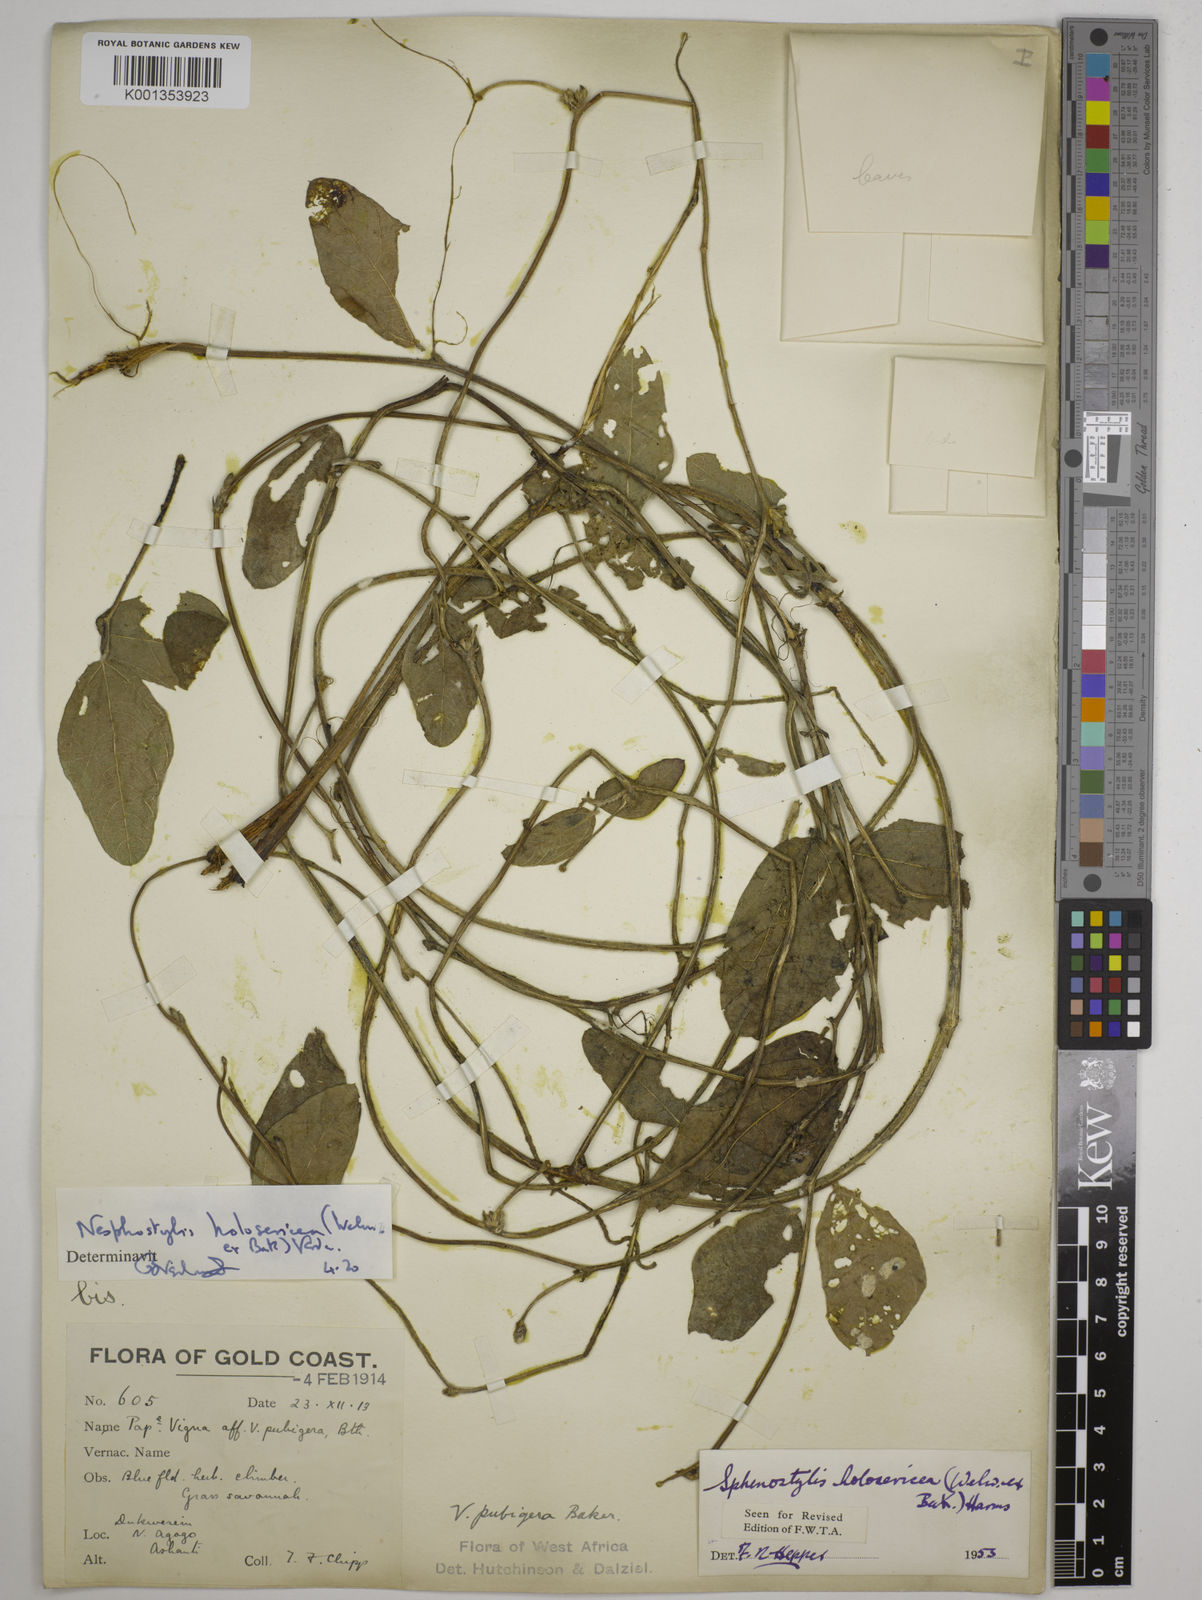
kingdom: Plantae
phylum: Tracheophyta
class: Magnoliopsida
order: Fabales
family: Fabaceae
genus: Nesphostylis
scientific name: Nesphostylis holosericea
